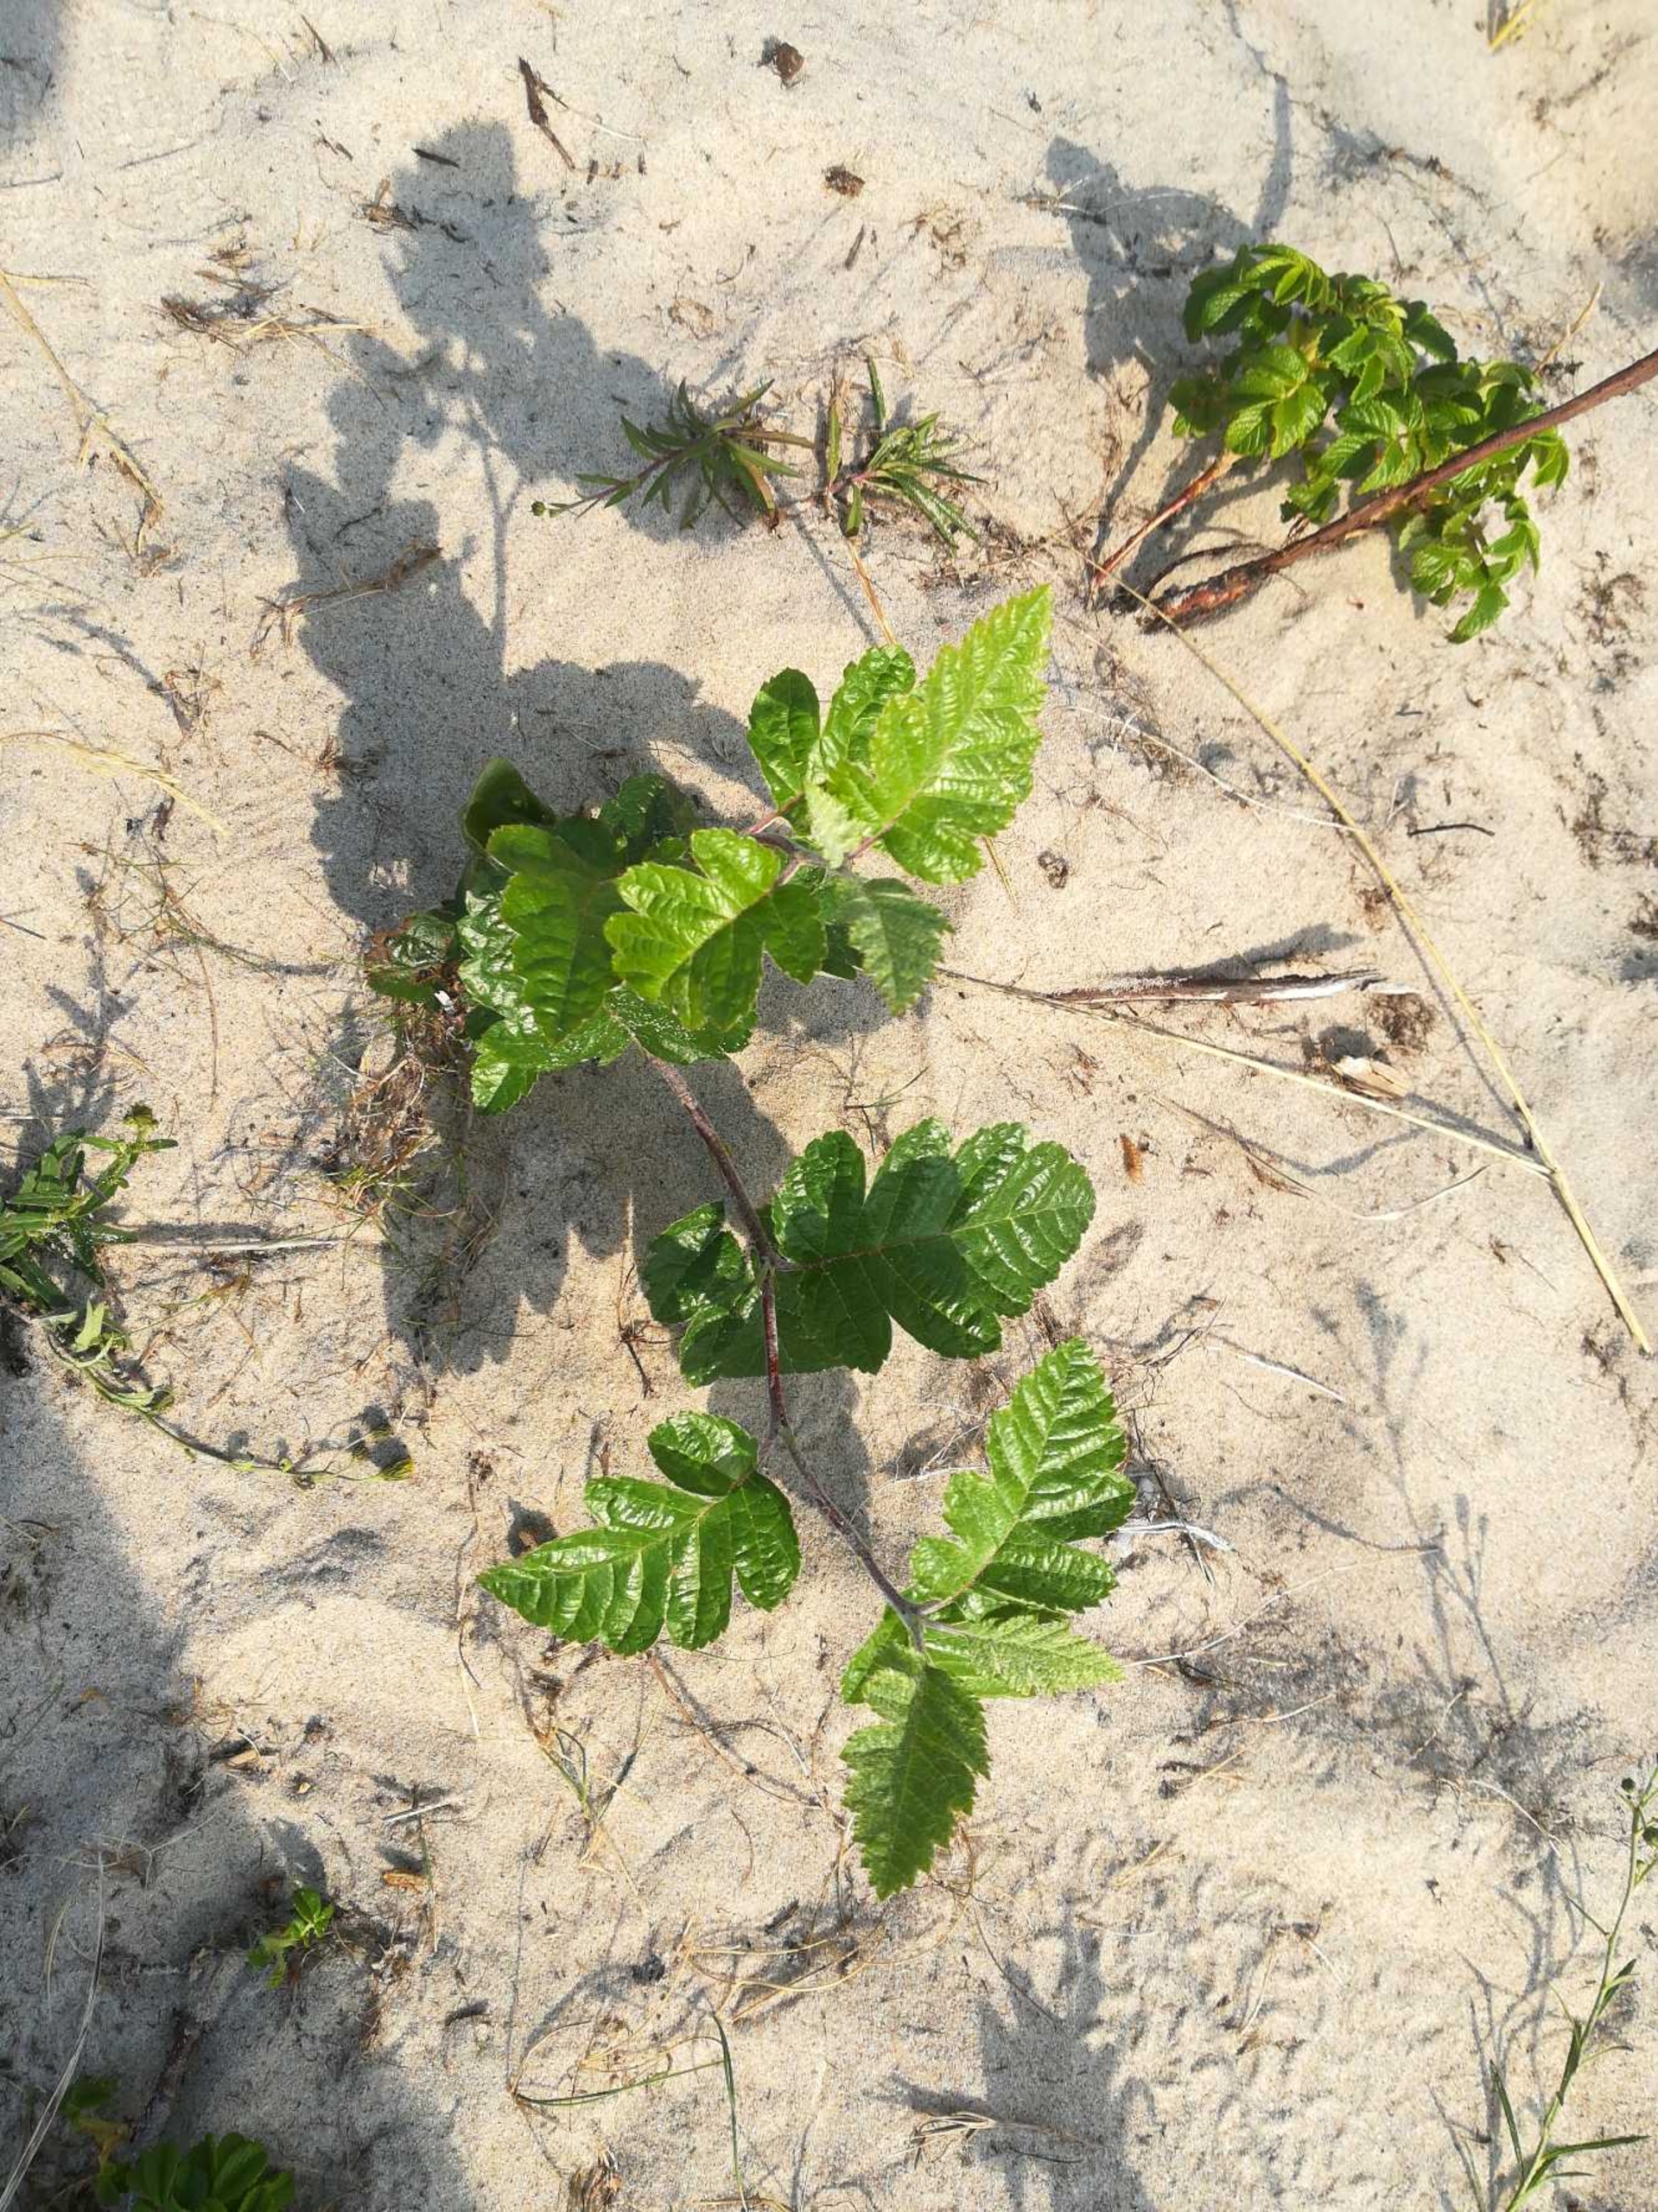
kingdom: Plantae
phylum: Tracheophyta
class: Magnoliopsida
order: Rosales
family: Rosaceae
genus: Scandosorbus
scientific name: Scandosorbus intermedia
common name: Selje-røn
